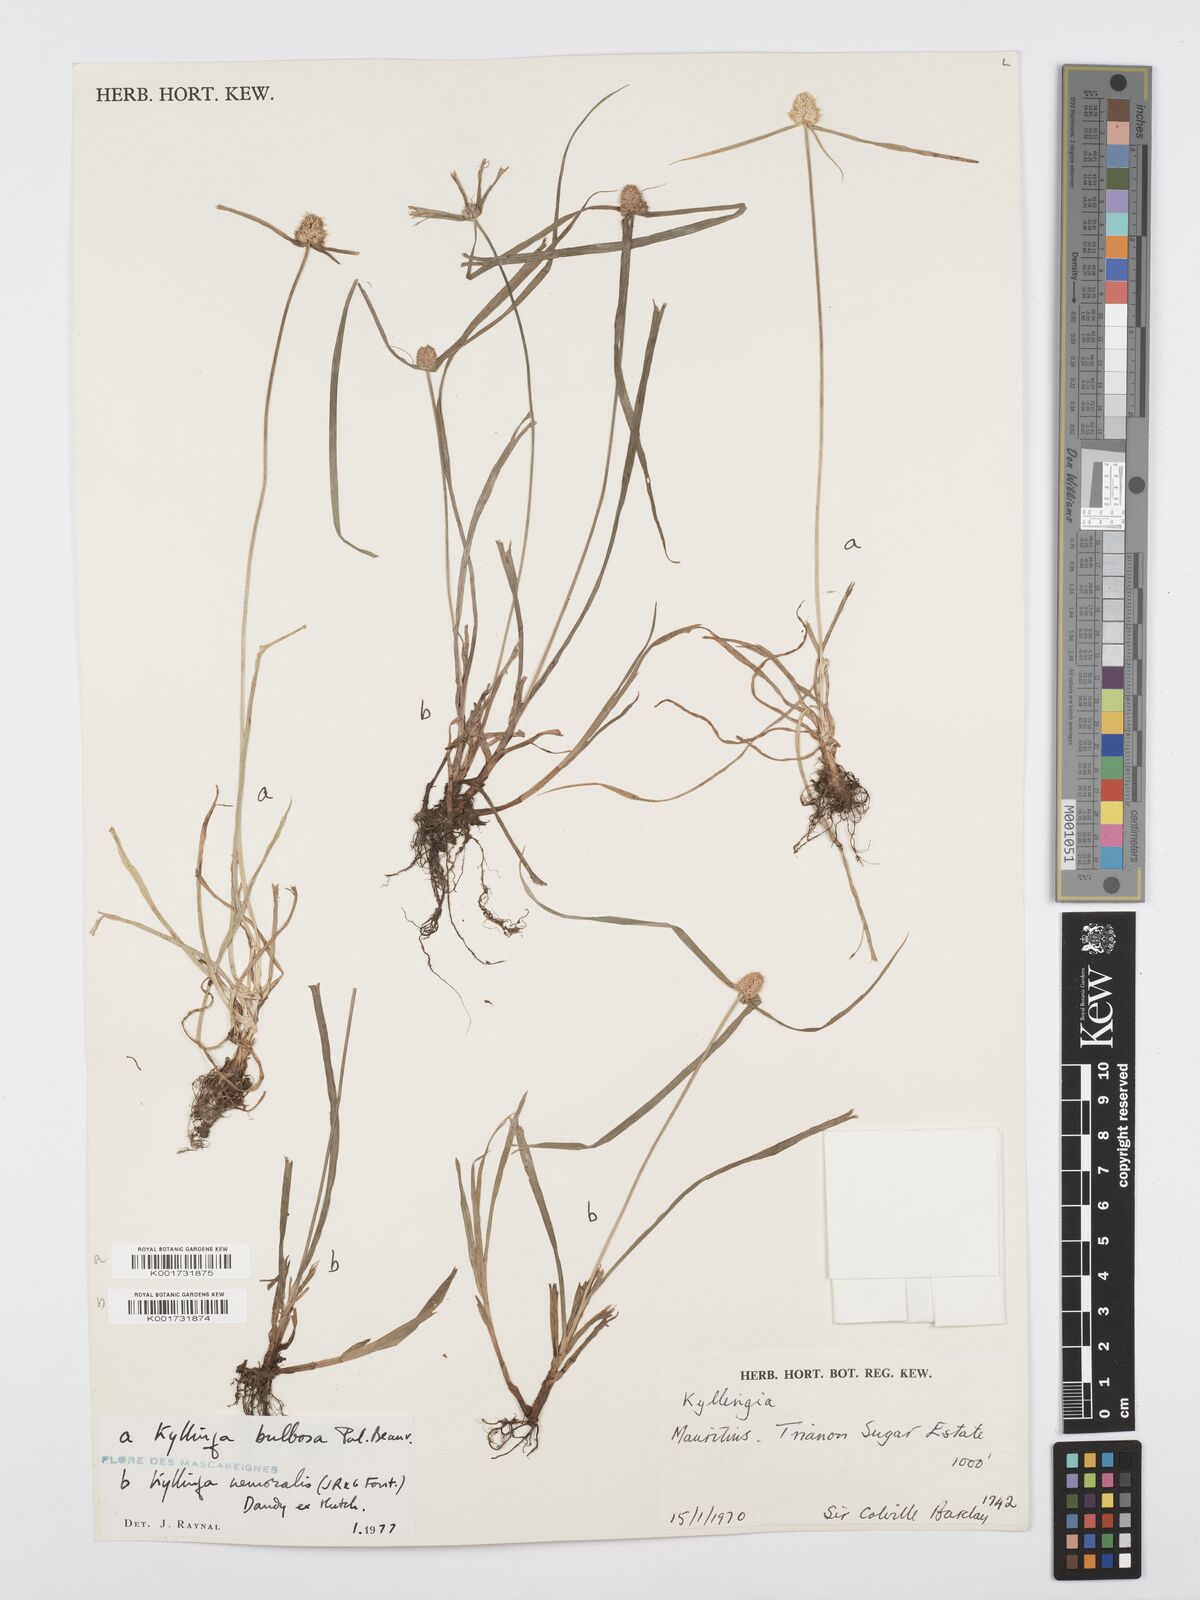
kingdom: Plantae
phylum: Tracheophyta
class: Liliopsida
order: Poales
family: Cyperaceae
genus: Cyperus
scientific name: Cyperus conglobatus
